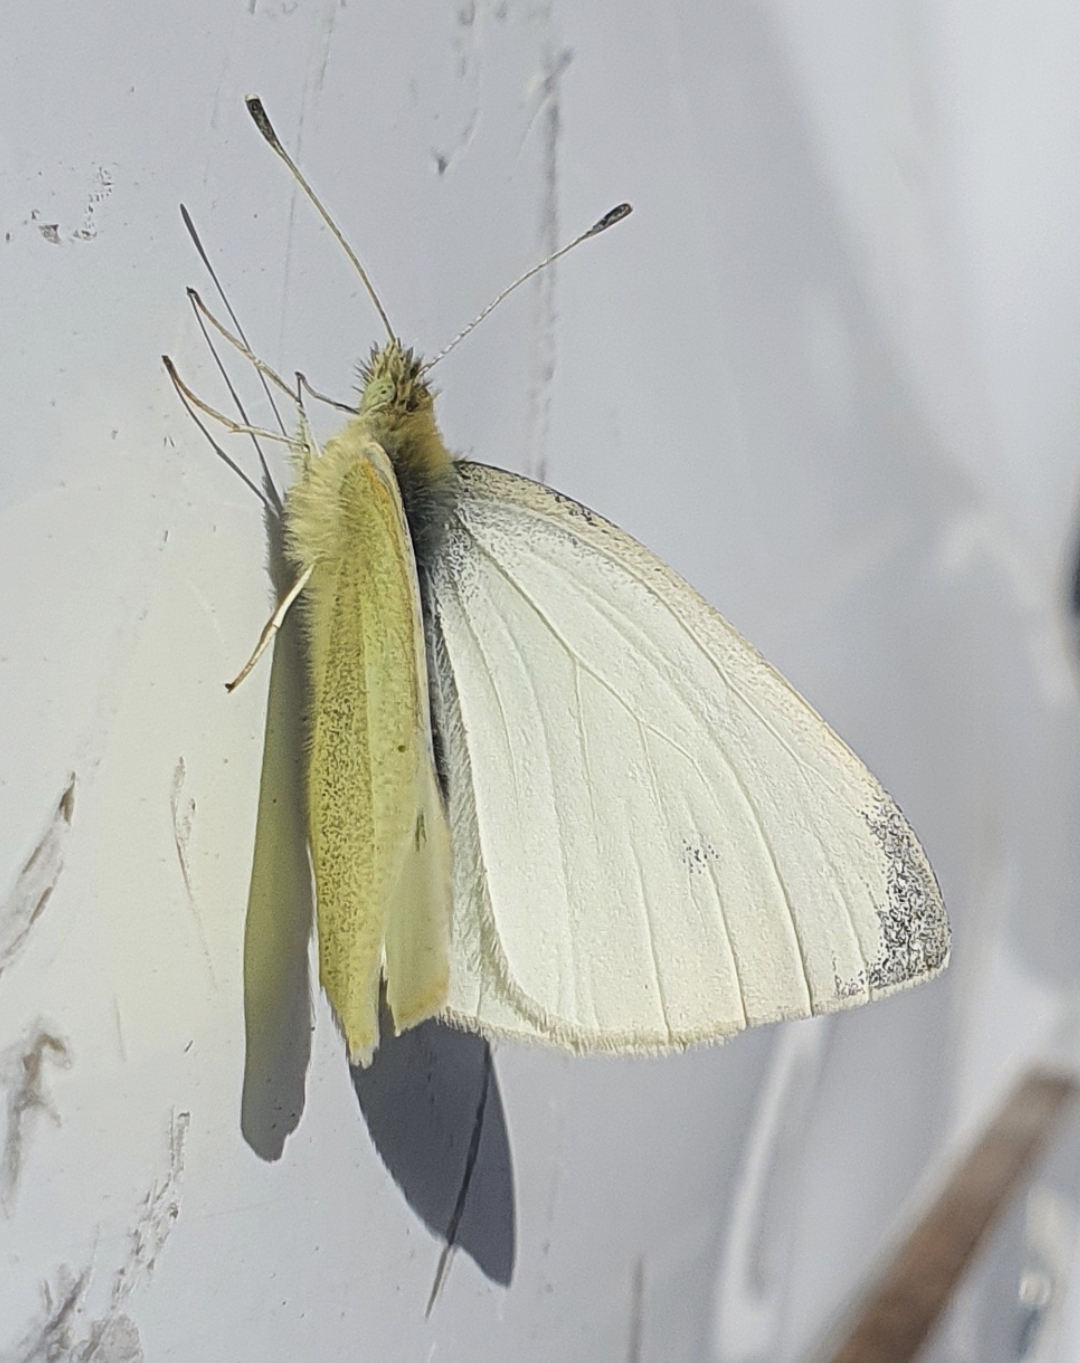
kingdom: Animalia
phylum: Arthropoda
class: Insecta
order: Lepidoptera
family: Pieridae
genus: Pieris
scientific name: Pieris rapae
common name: Lille kålsommerfugl
